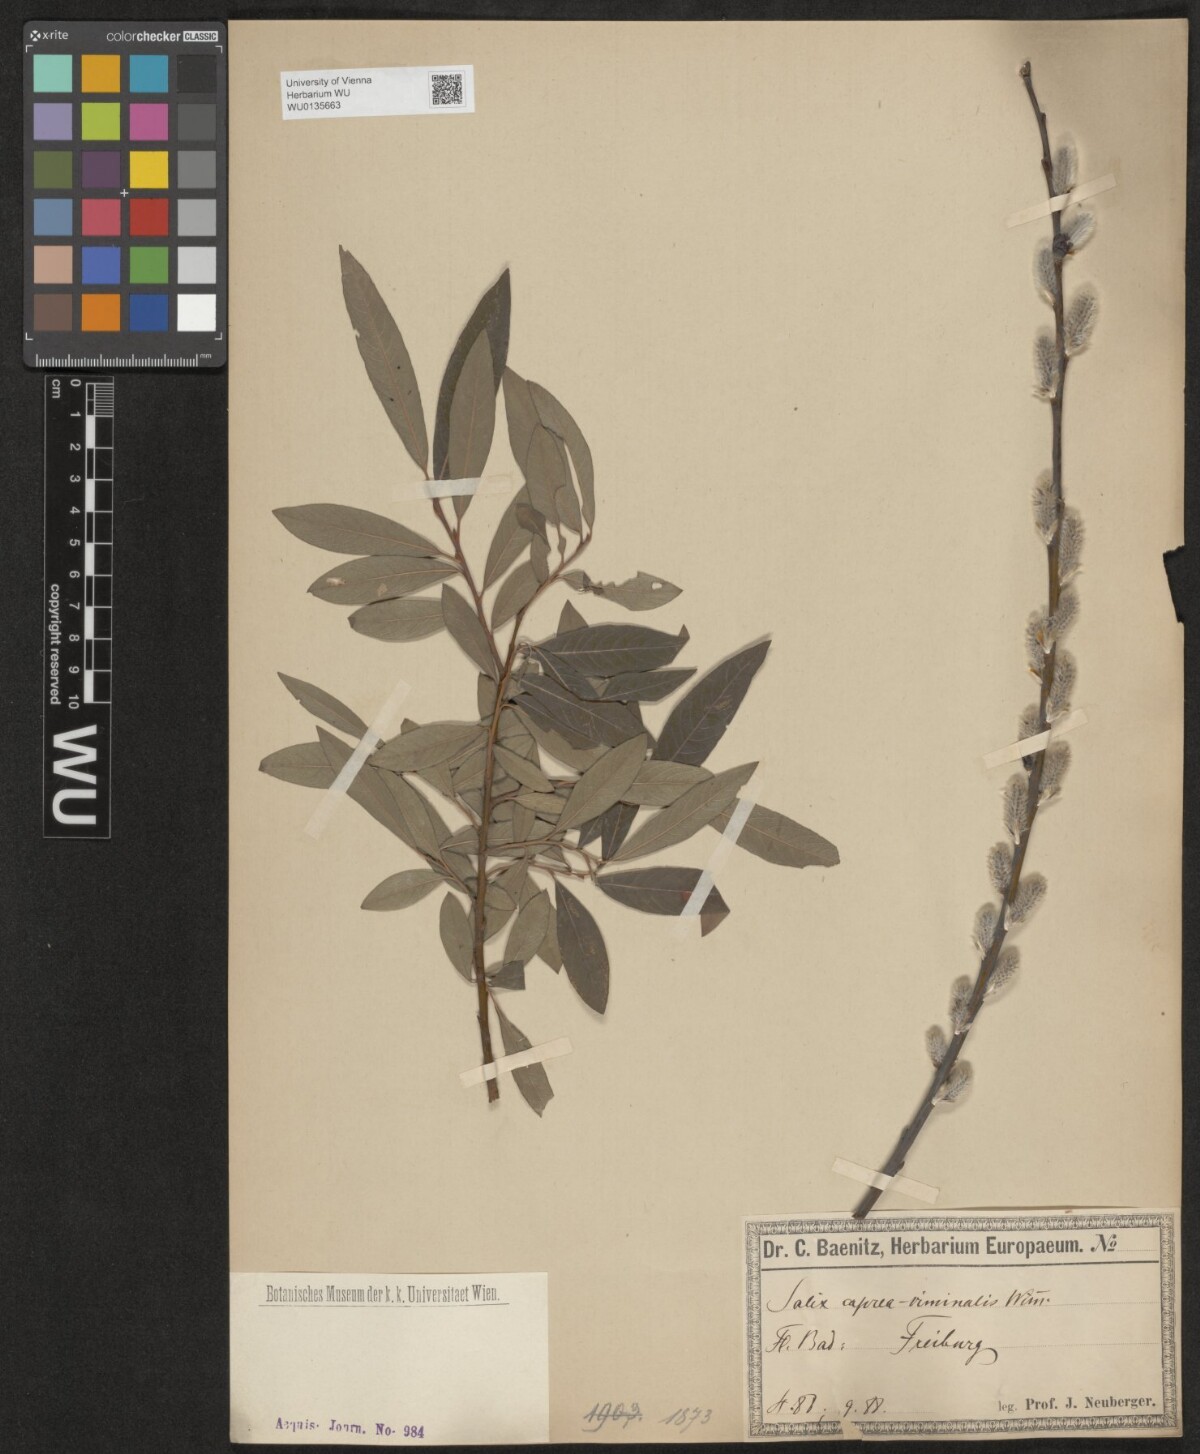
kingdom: Plantae
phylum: Tracheophyta
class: Magnoliopsida
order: Malpighiales
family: Salicaceae
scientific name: Salicaceae
